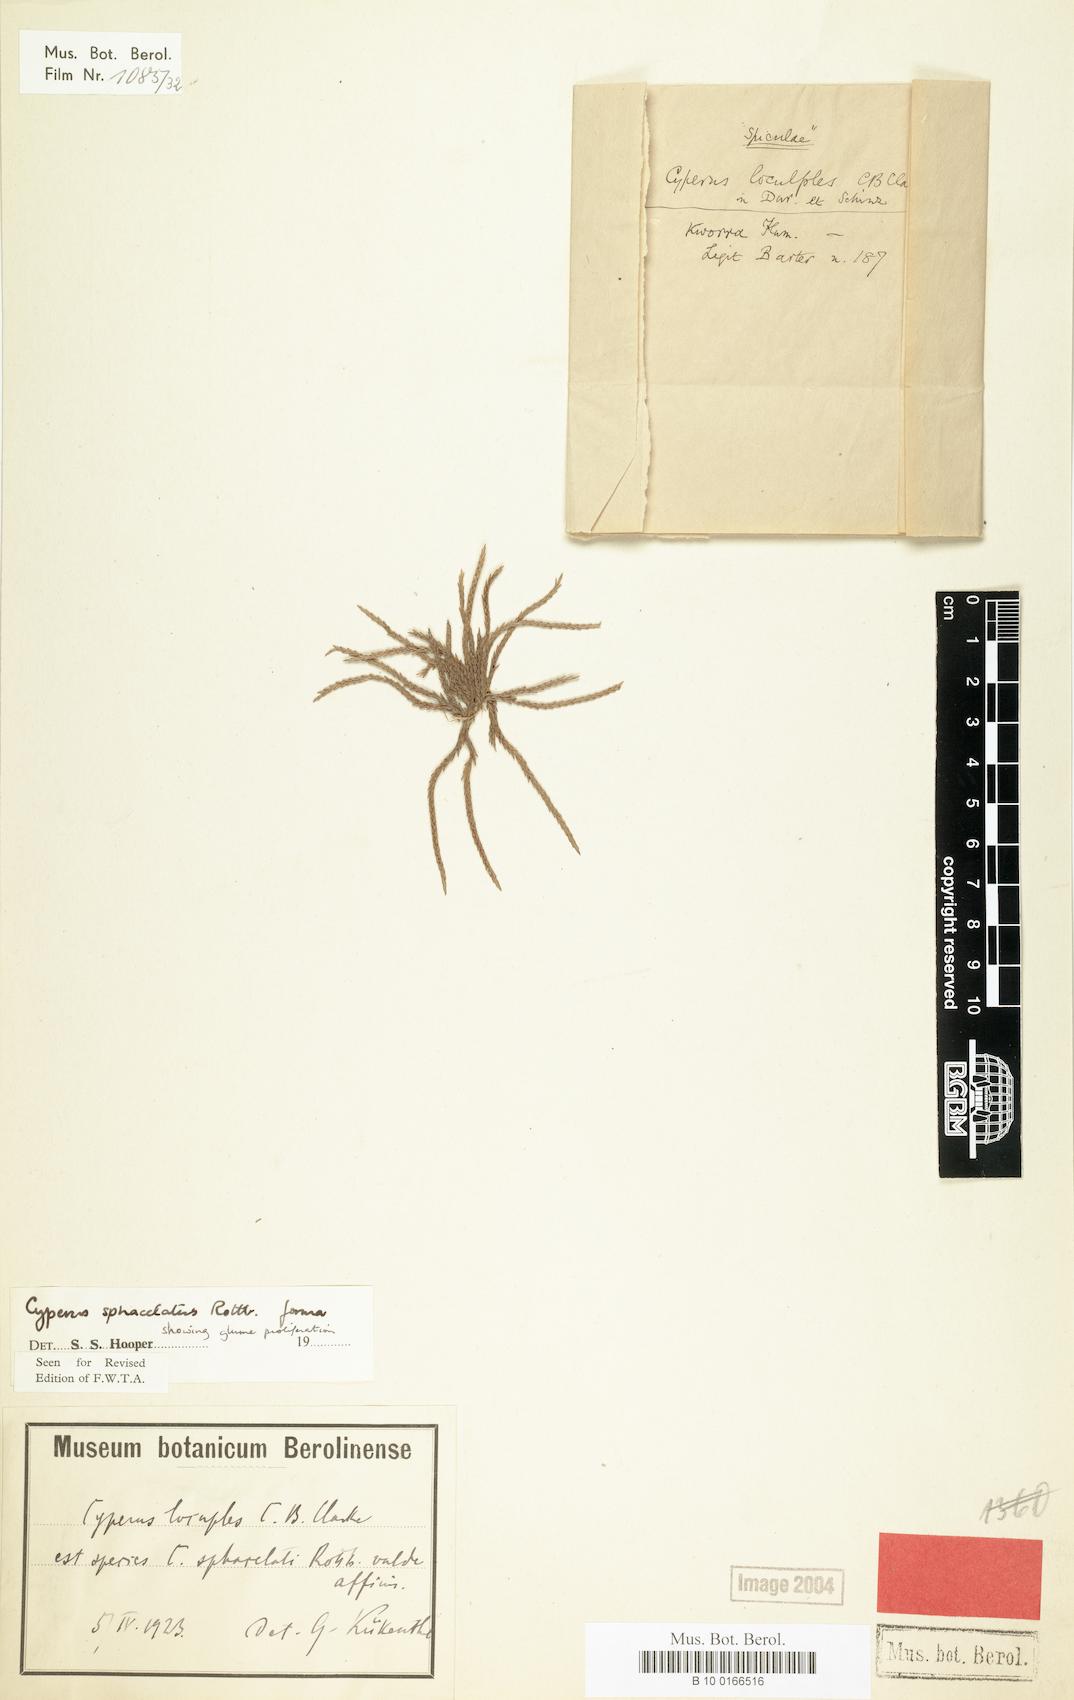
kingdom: Plantae
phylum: Tracheophyta
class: Liliopsida
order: Poales
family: Cyperaceae
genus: Cyperus
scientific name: Cyperus sphacelatus
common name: Roadside flatsedge
